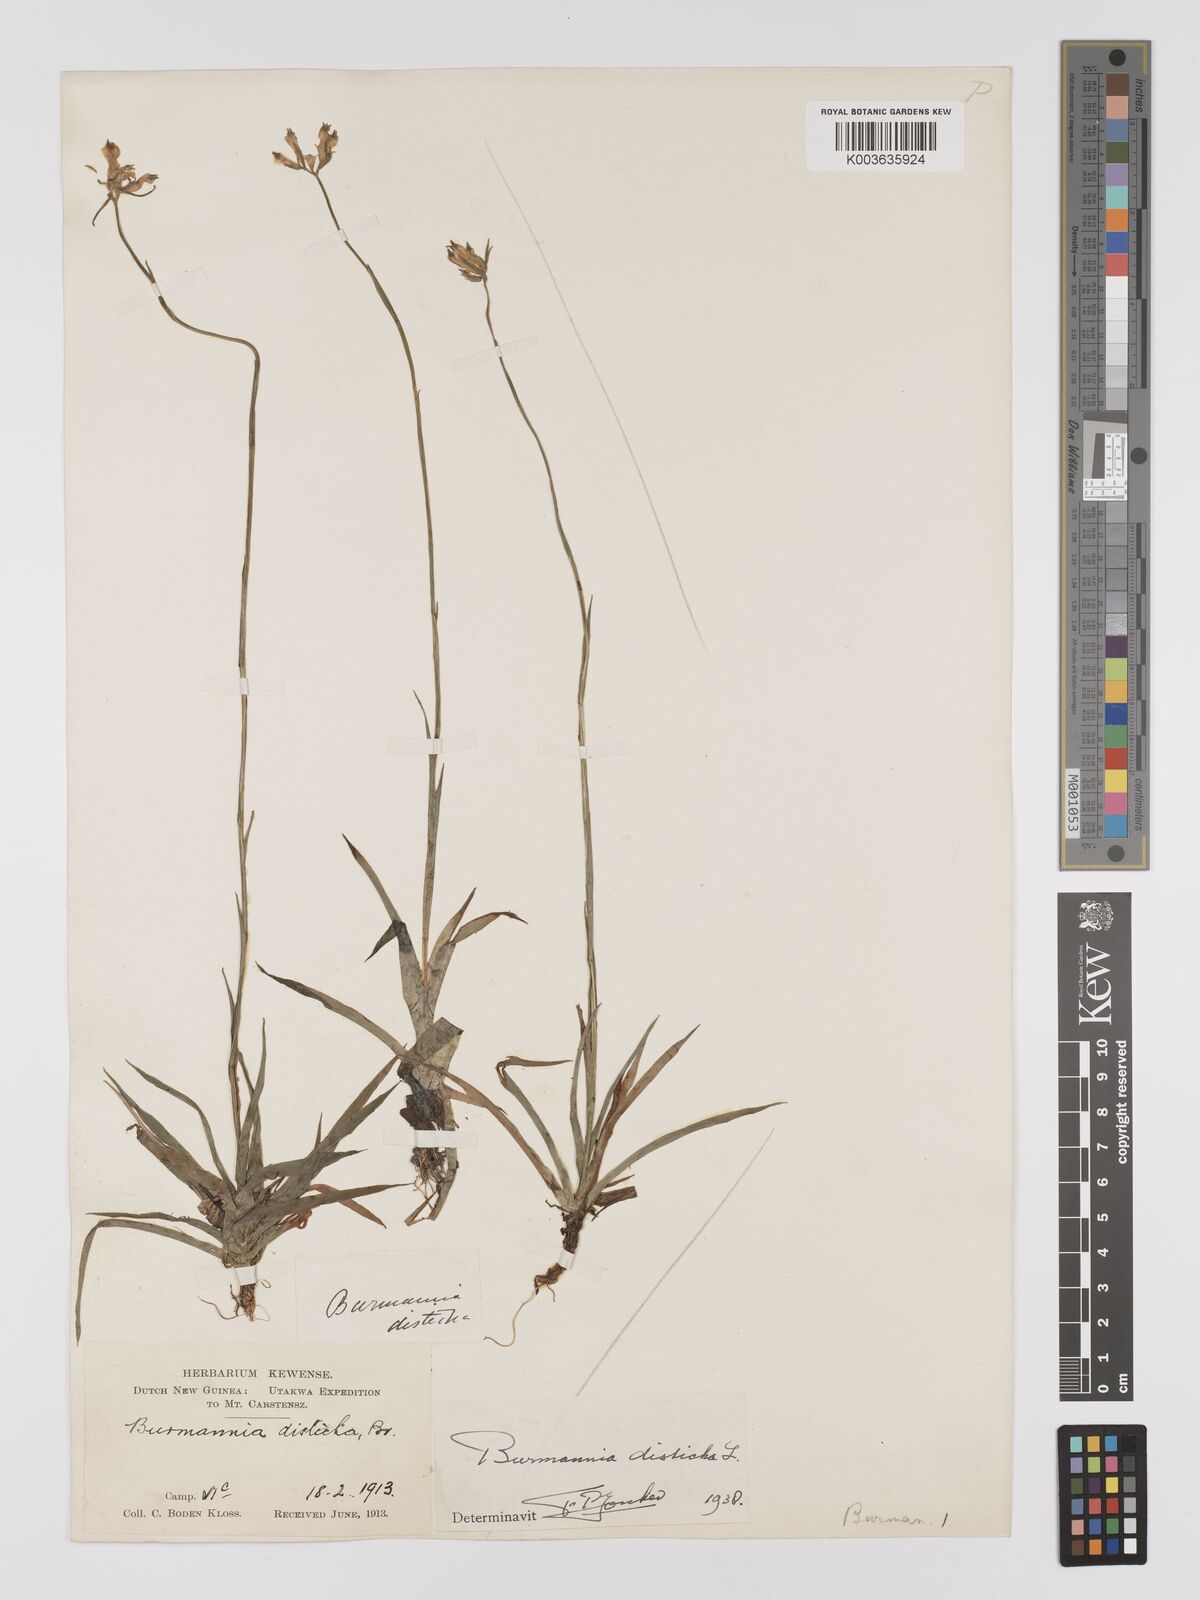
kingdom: Plantae
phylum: Tracheophyta
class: Liliopsida
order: Dioscoreales
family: Burmanniaceae
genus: Burmannia
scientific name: Burmannia disticha
